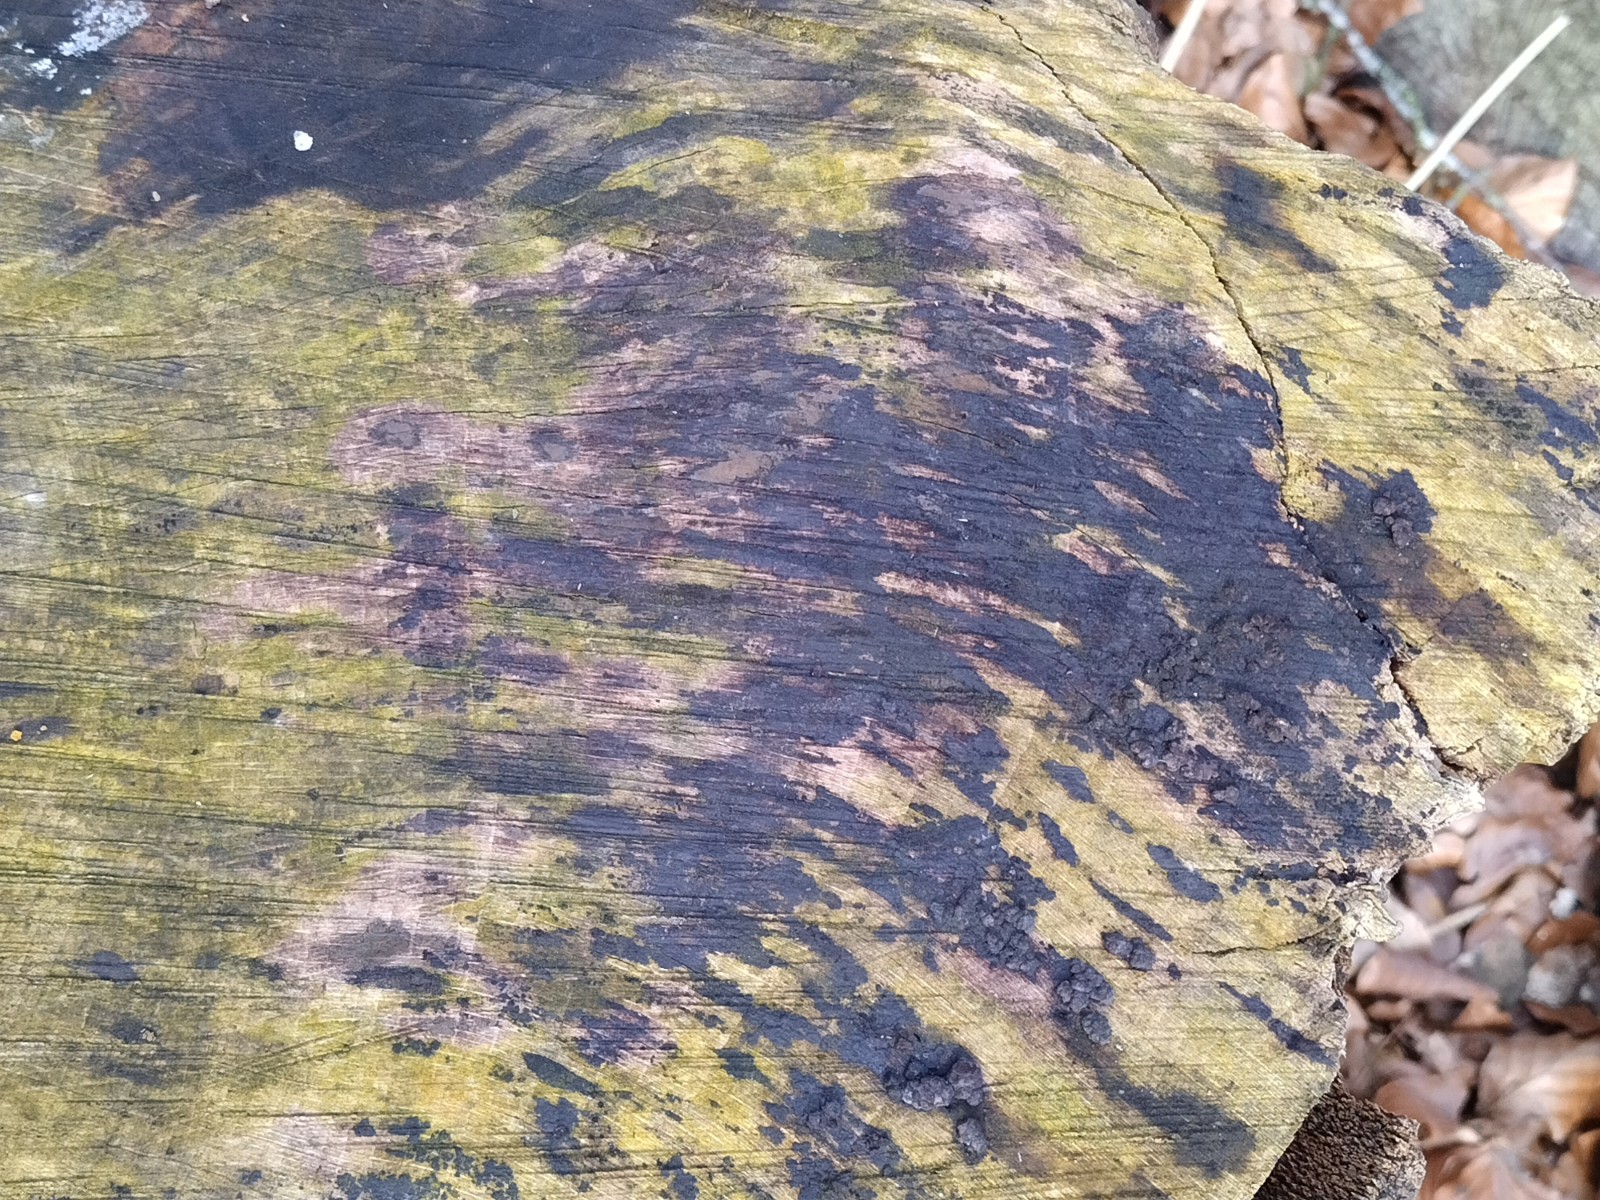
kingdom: Fungi
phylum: Ascomycota
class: Leotiomycetes
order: Helotiales
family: Helotiaceae
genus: Bispora
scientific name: Bispora pallescens
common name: måtte-snitskive
